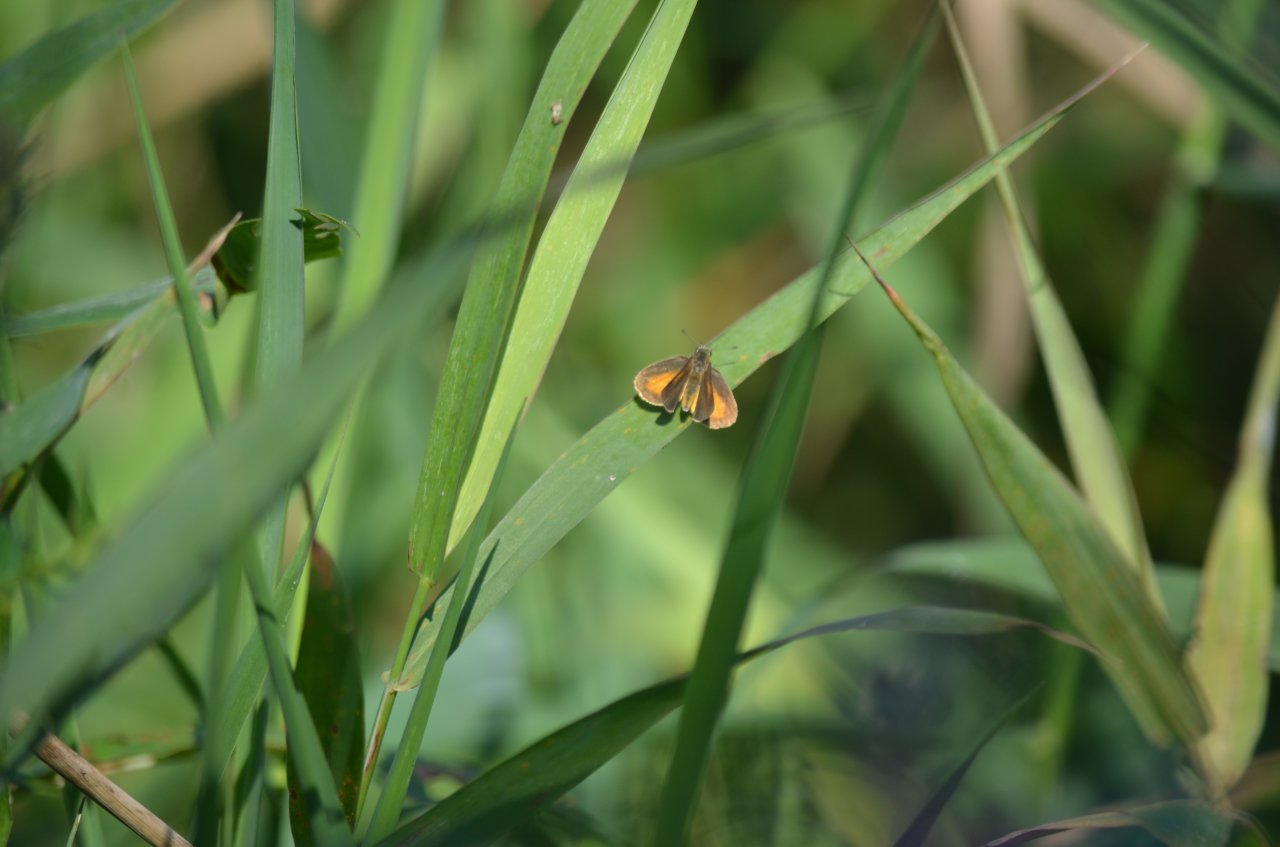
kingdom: Animalia
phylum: Arthropoda
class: Insecta
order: Lepidoptera
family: Hesperiidae
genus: Ancyloxypha
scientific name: Ancyloxypha numitor
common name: Least Skipper
